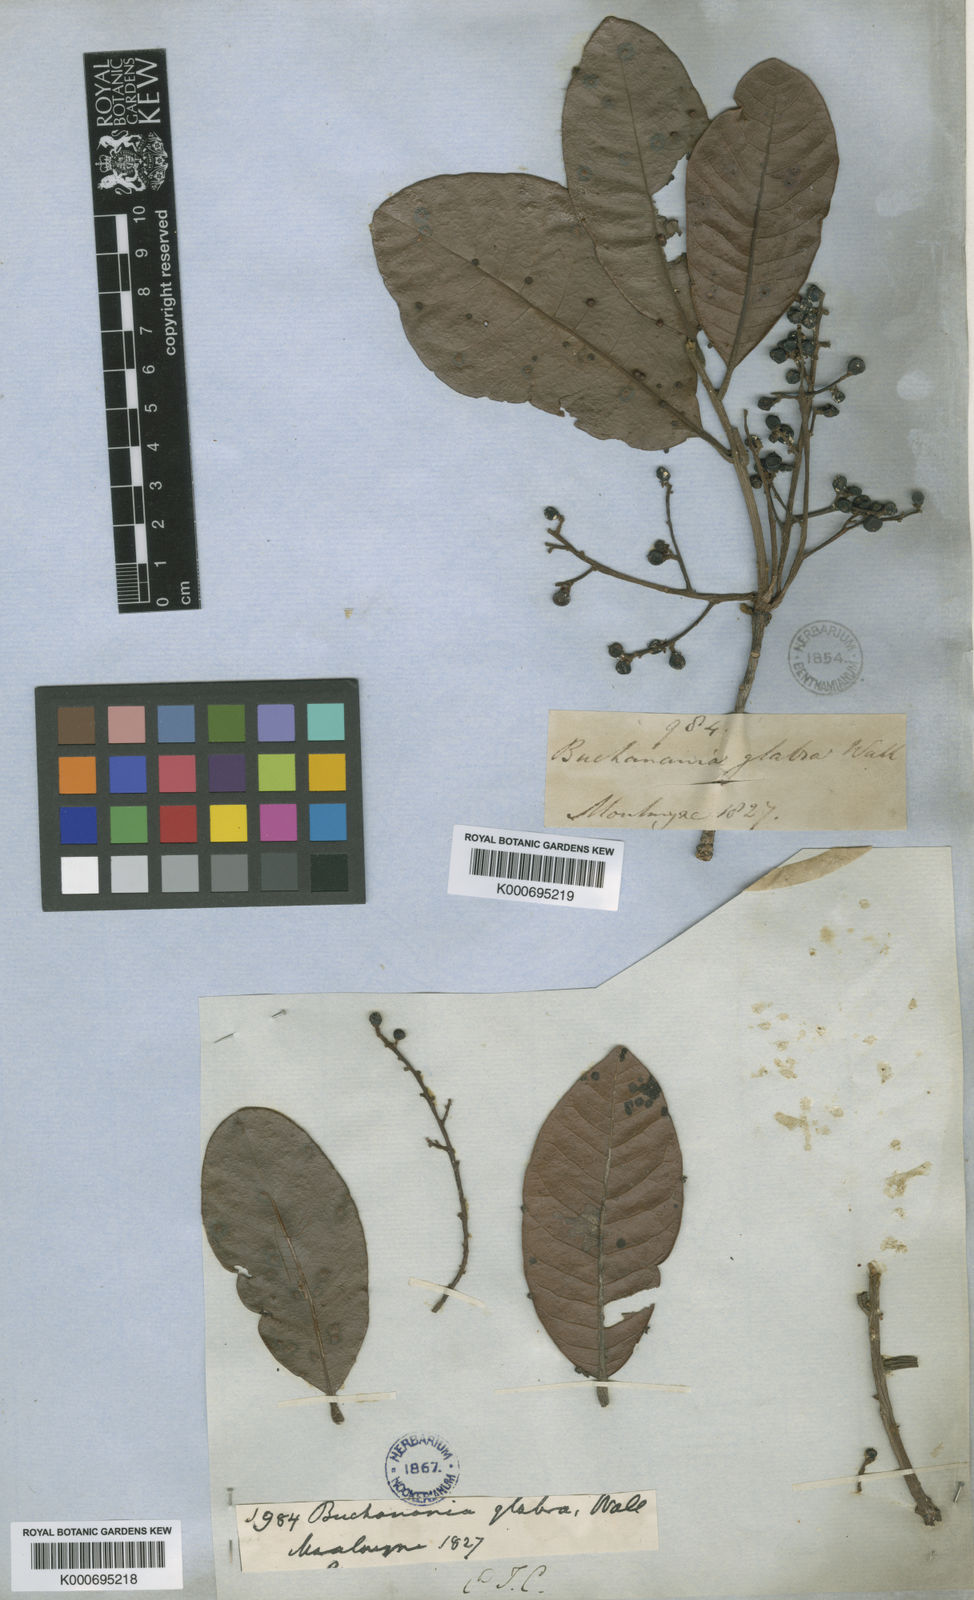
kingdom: Plantae
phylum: Tracheophyta
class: Magnoliopsida
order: Sapindales
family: Anacardiaceae
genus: Buchanania
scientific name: Buchanania
